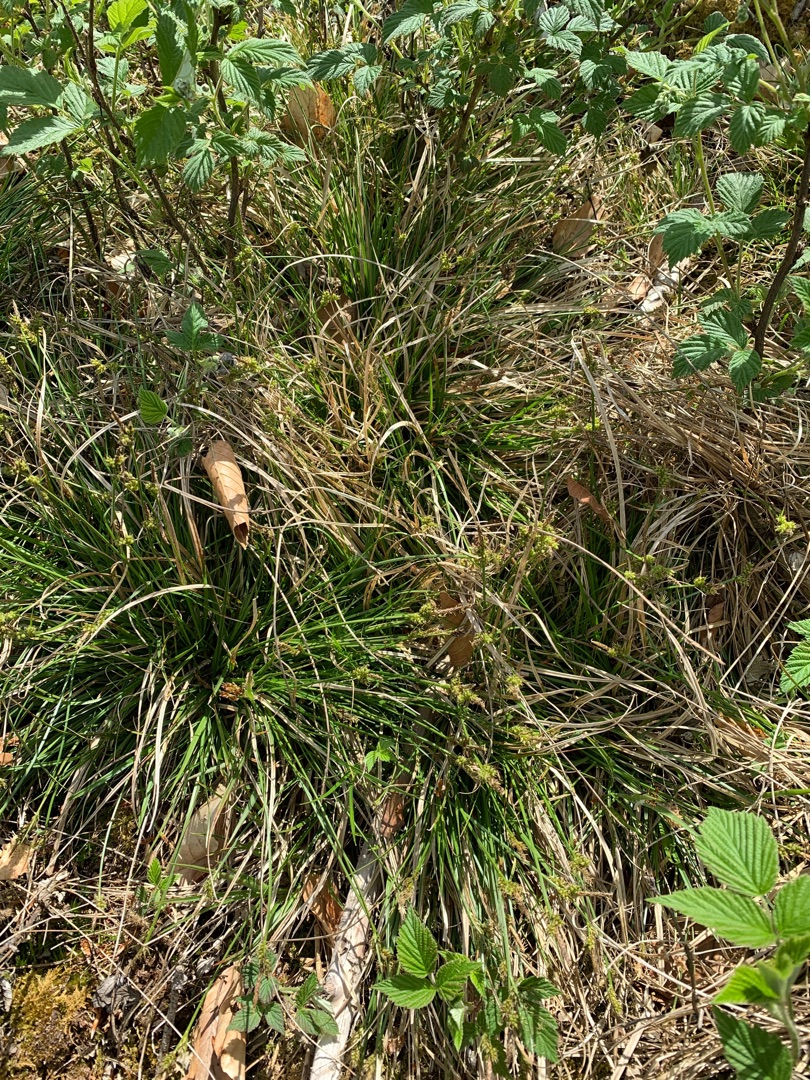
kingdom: Plantae
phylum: Tracheophyta
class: Liliopsida
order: Poales
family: Cyperaceae
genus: Carex
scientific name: Carex pilulifera
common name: Pille-star
